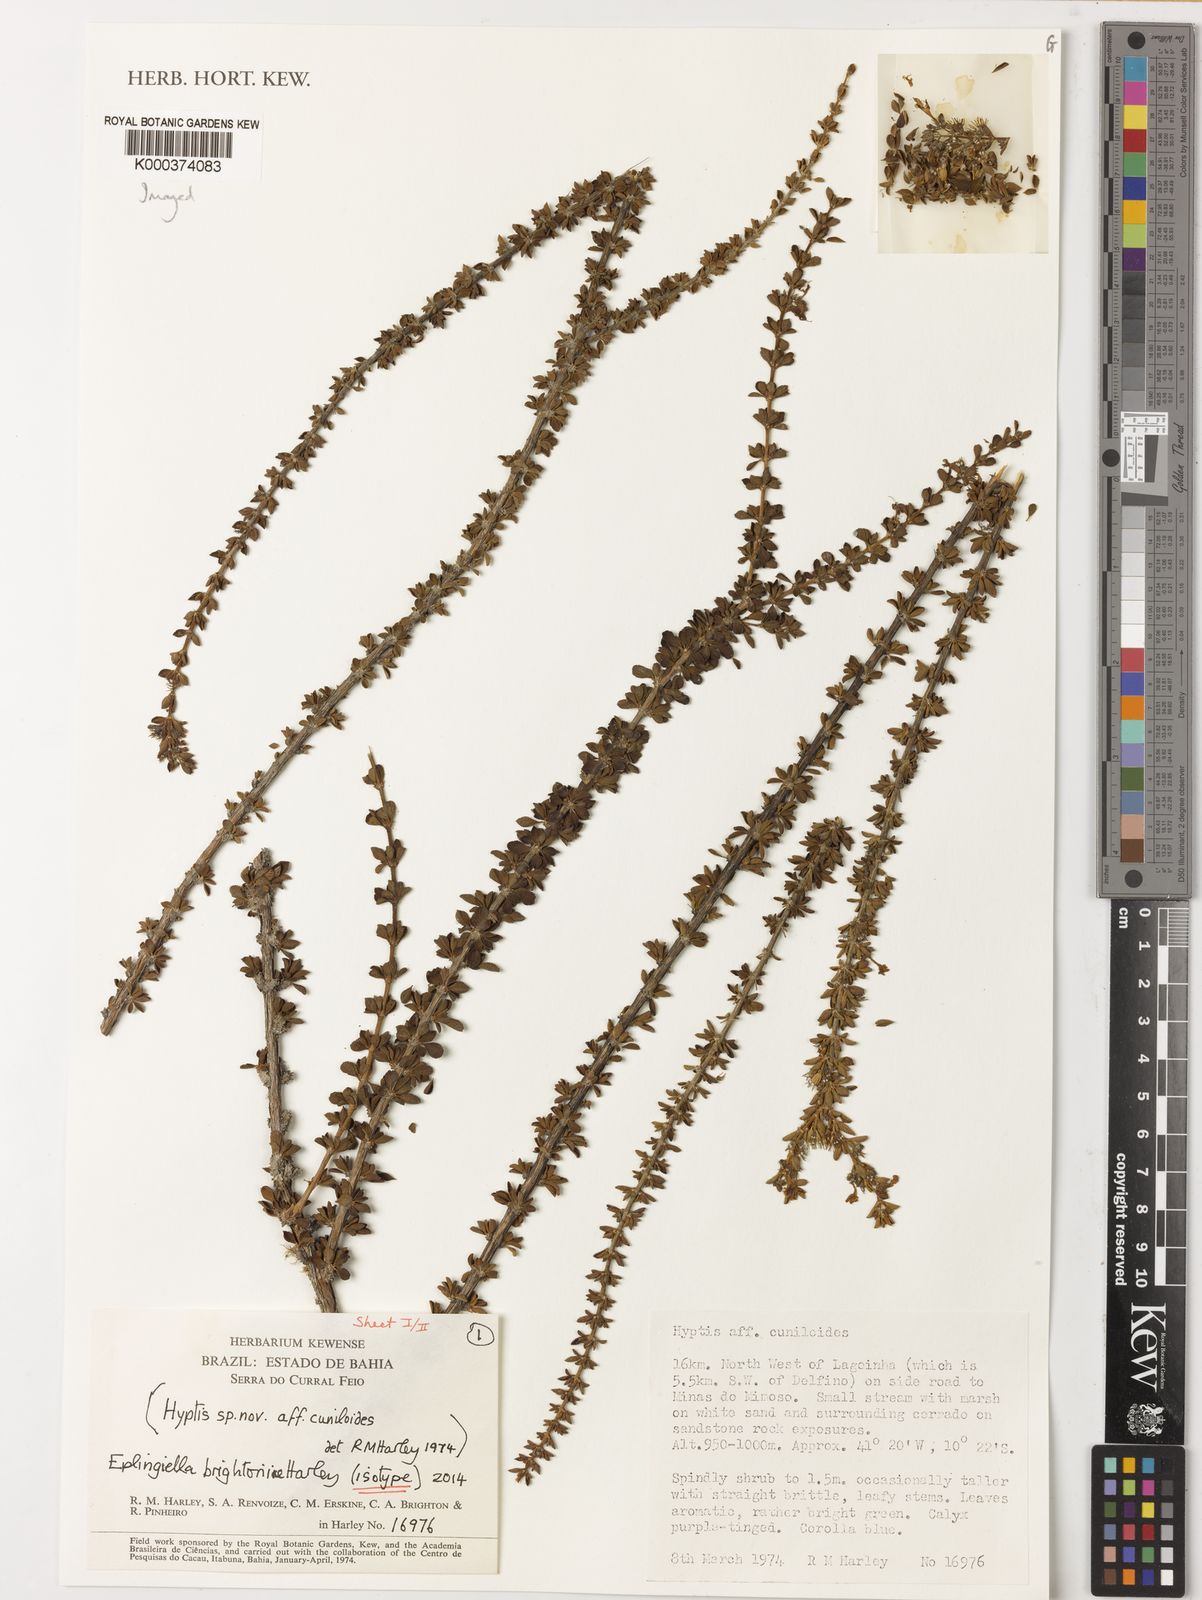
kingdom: Plantae
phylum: Tracheophyta
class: Magnoliopsida
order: Lamiales
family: Lamiaceae
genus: Eplingiella
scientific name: Eplingiella brightoniae
